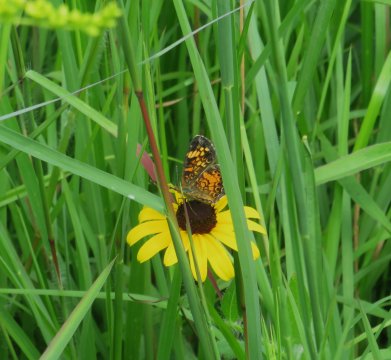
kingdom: Animalia
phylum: Arthropoda
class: Insecta
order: Lepidoptera
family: Nymphalidae
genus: Phyciodes
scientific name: Phyciodes tharos
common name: Pearl Crescent
